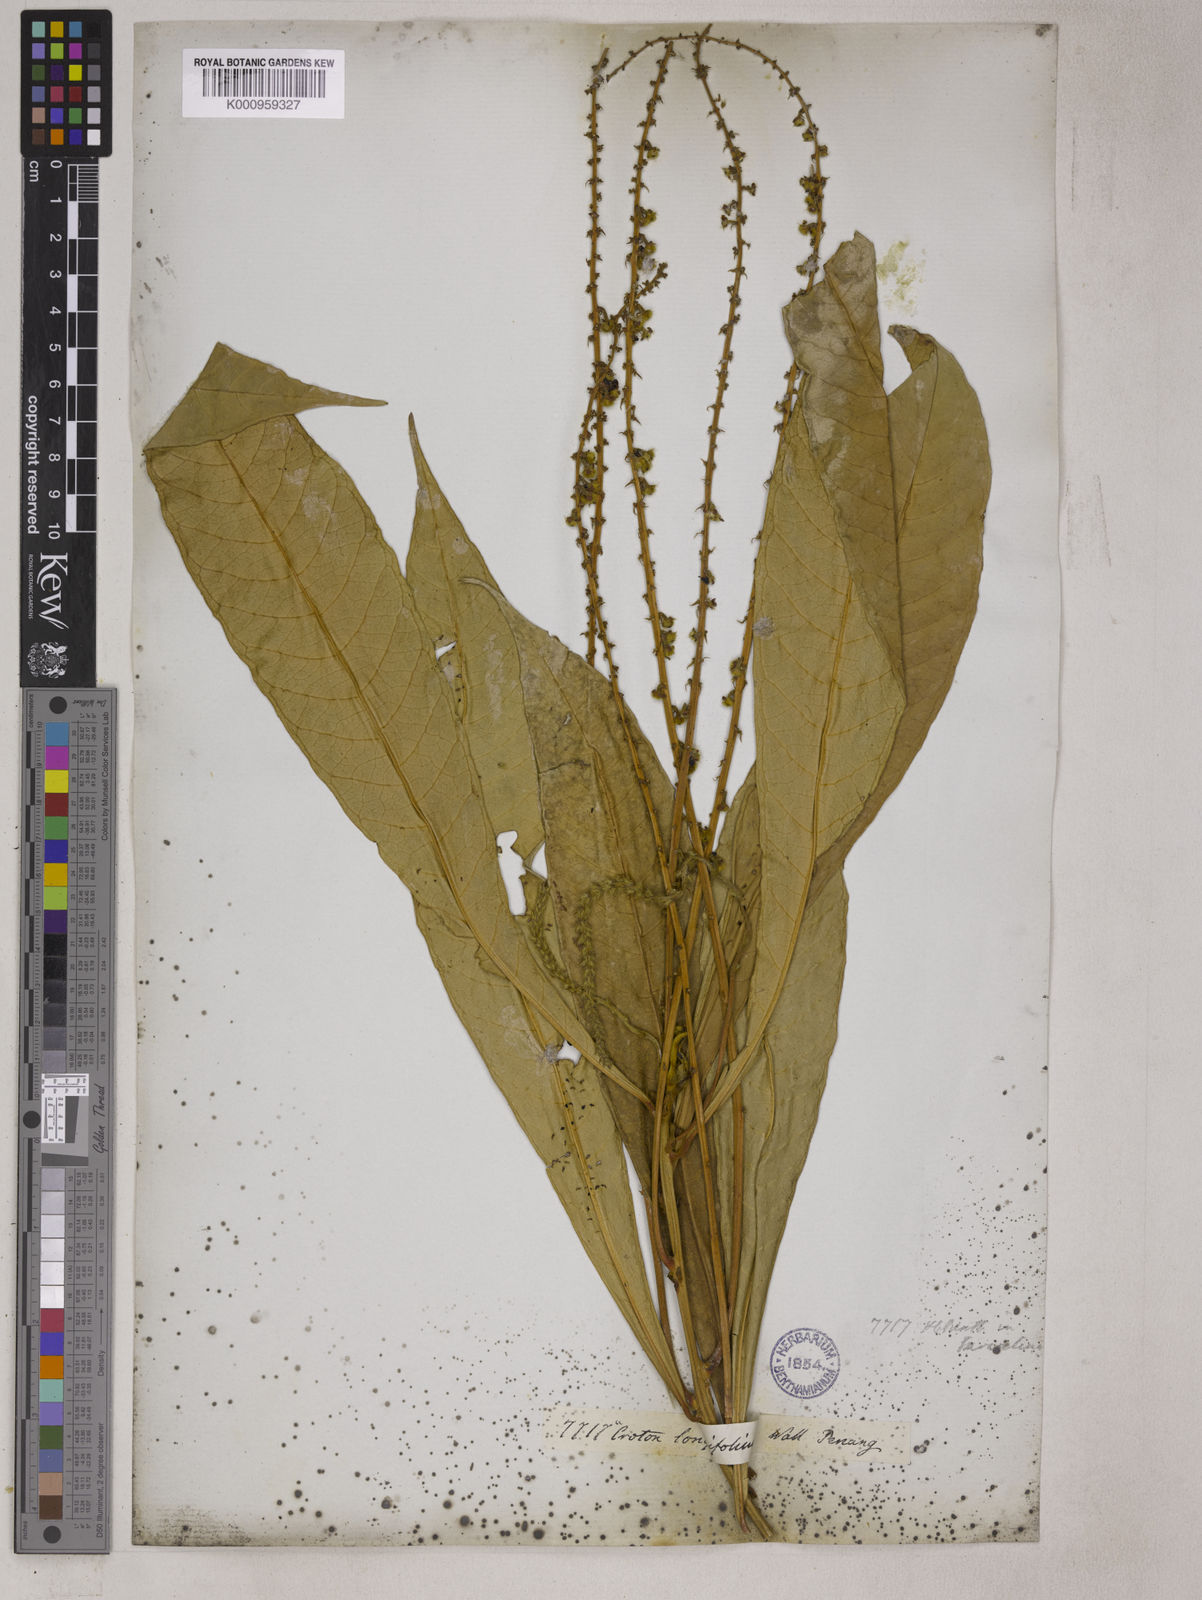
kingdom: Plantae
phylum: Tracheophyta
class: Magnoliopsida
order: Malpighiales
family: Euphorbiaceae
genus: Trigonostemon
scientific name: Trigonostemon longifolius
